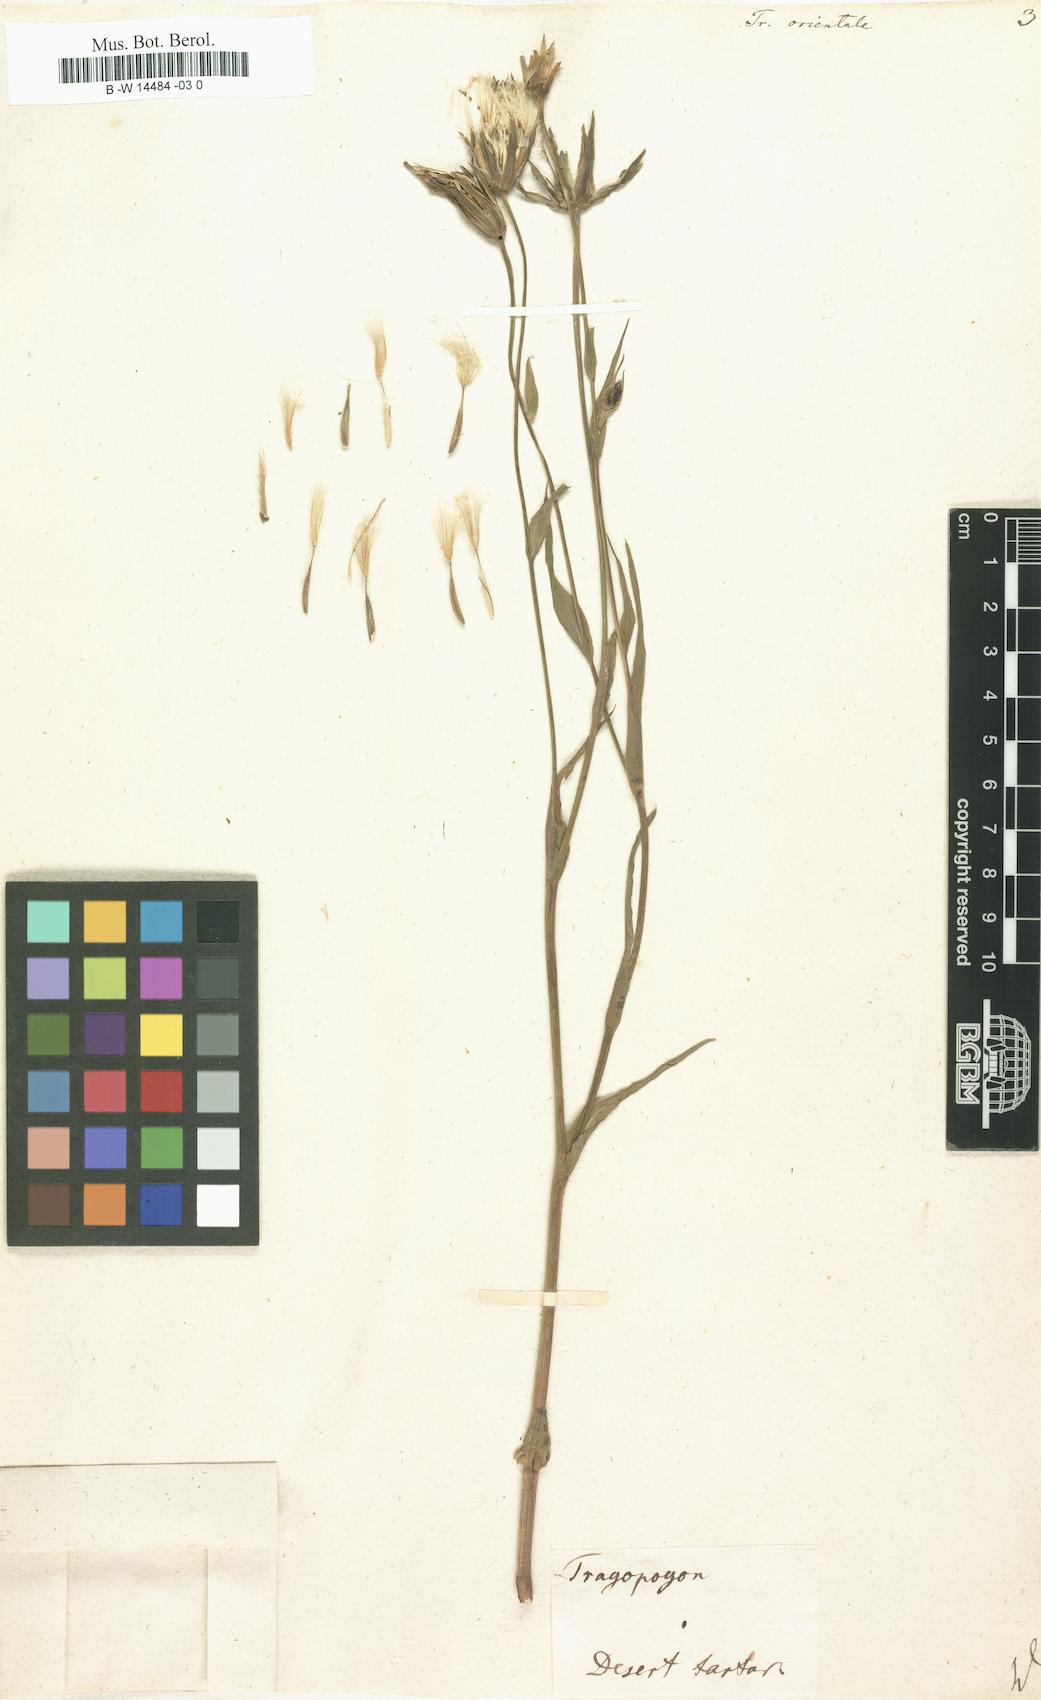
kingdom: Plantae
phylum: Tracheophyta
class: Magnoliopsida
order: Asterales
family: Asteraceae
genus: Tragopogon
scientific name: Tragopogon orientalis
